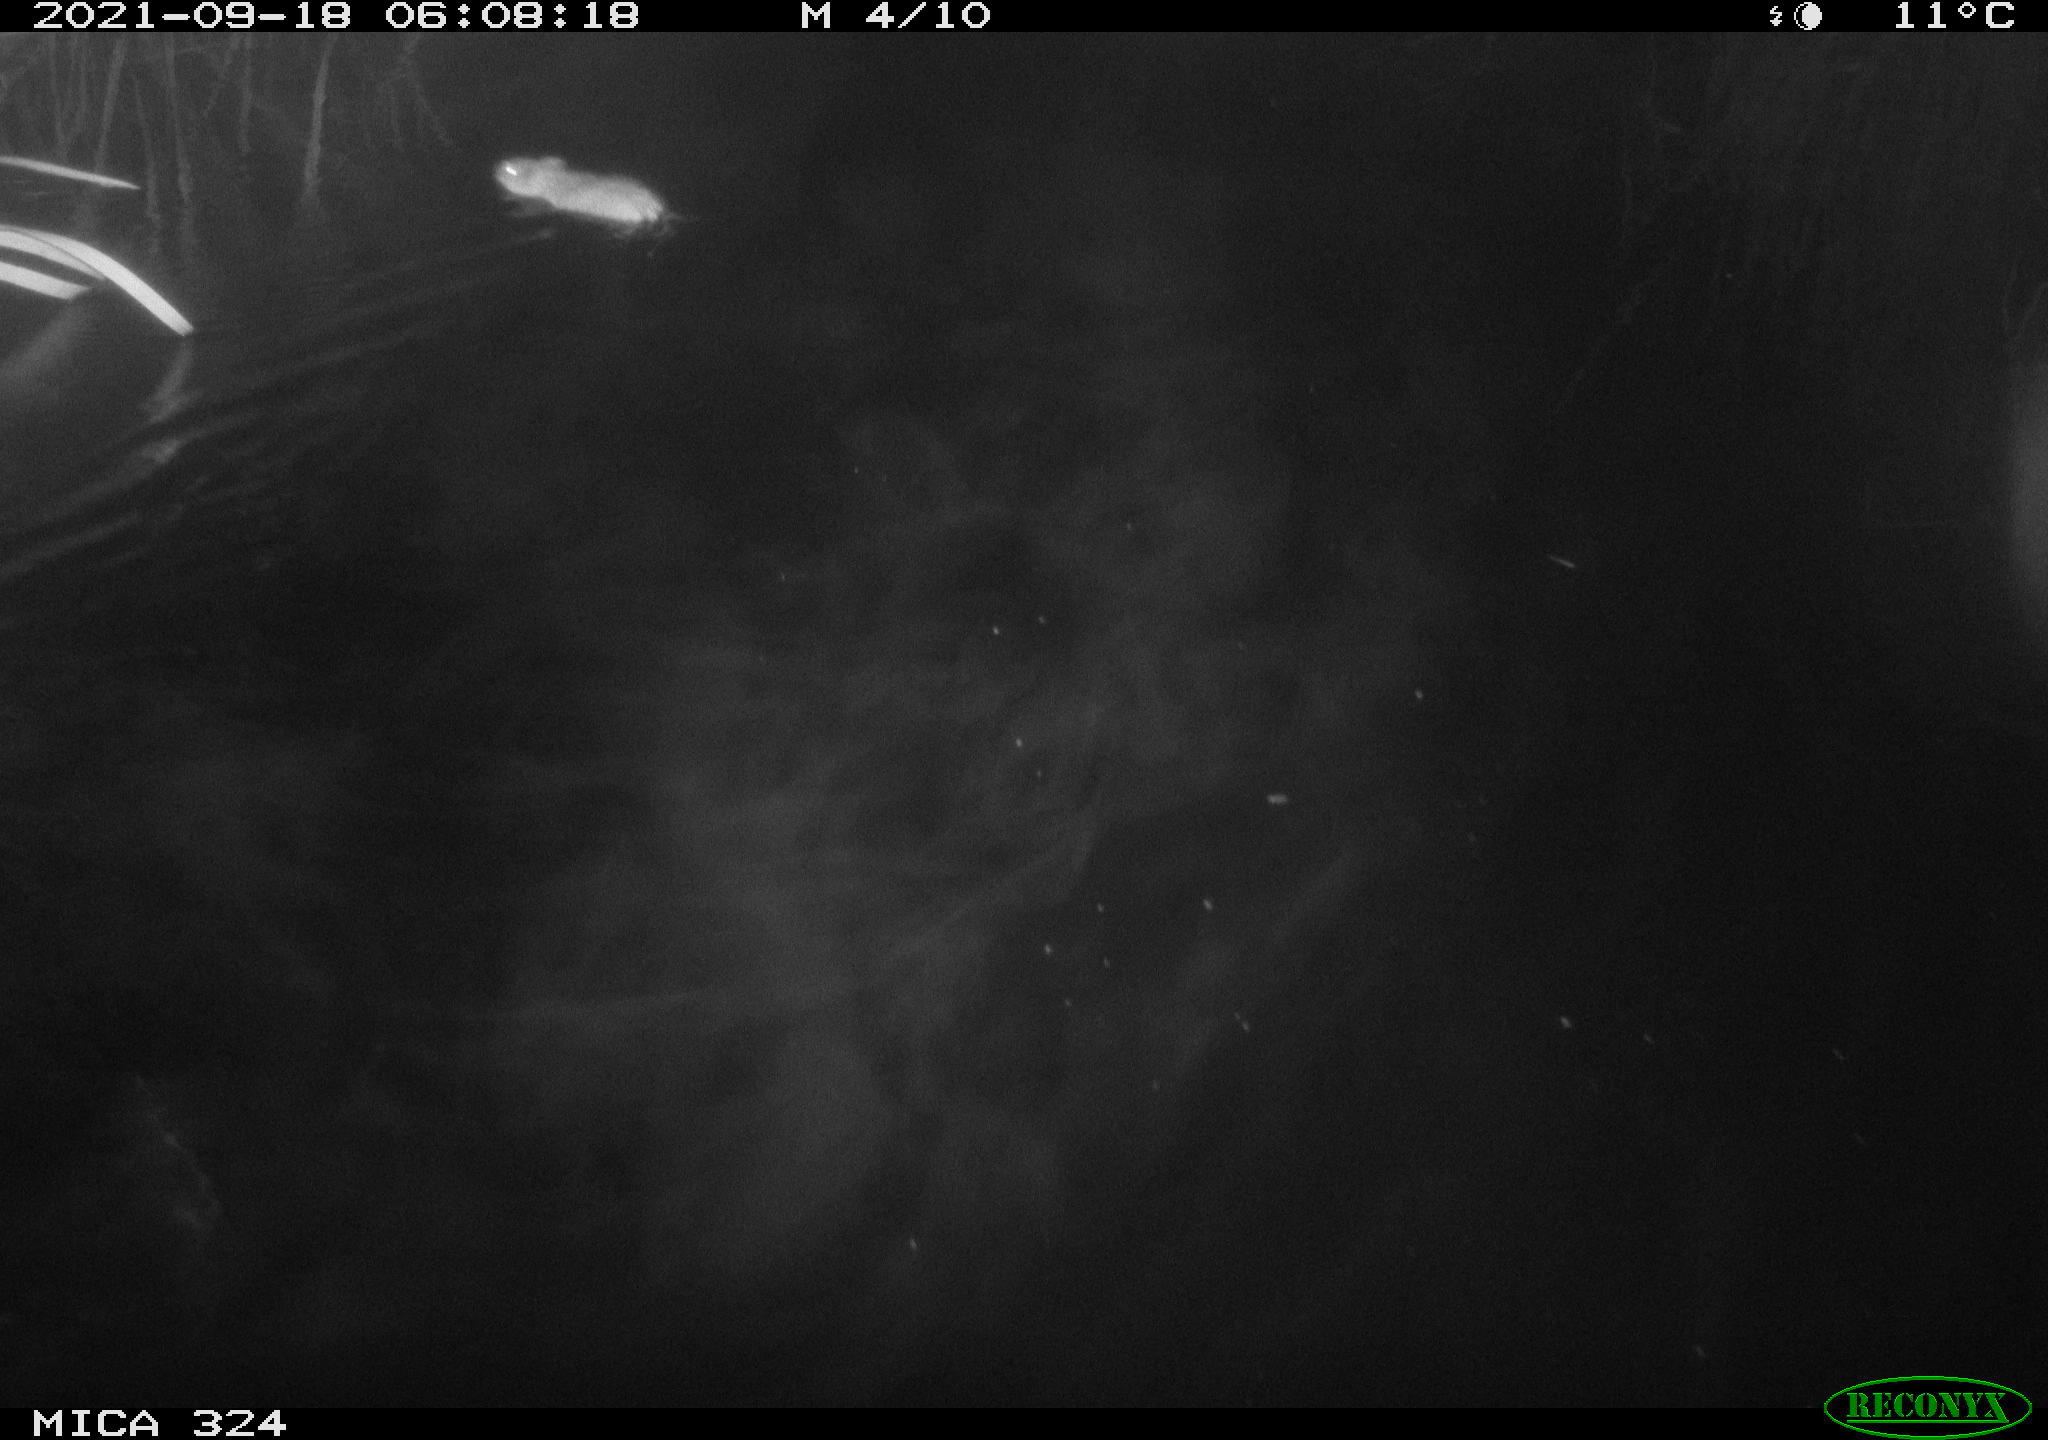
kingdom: Animalia
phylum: Chordata
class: Mammalia
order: Rodentia
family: Cricetidae
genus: Ondatra
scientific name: Ondatra zibethicus
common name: Muskrat
